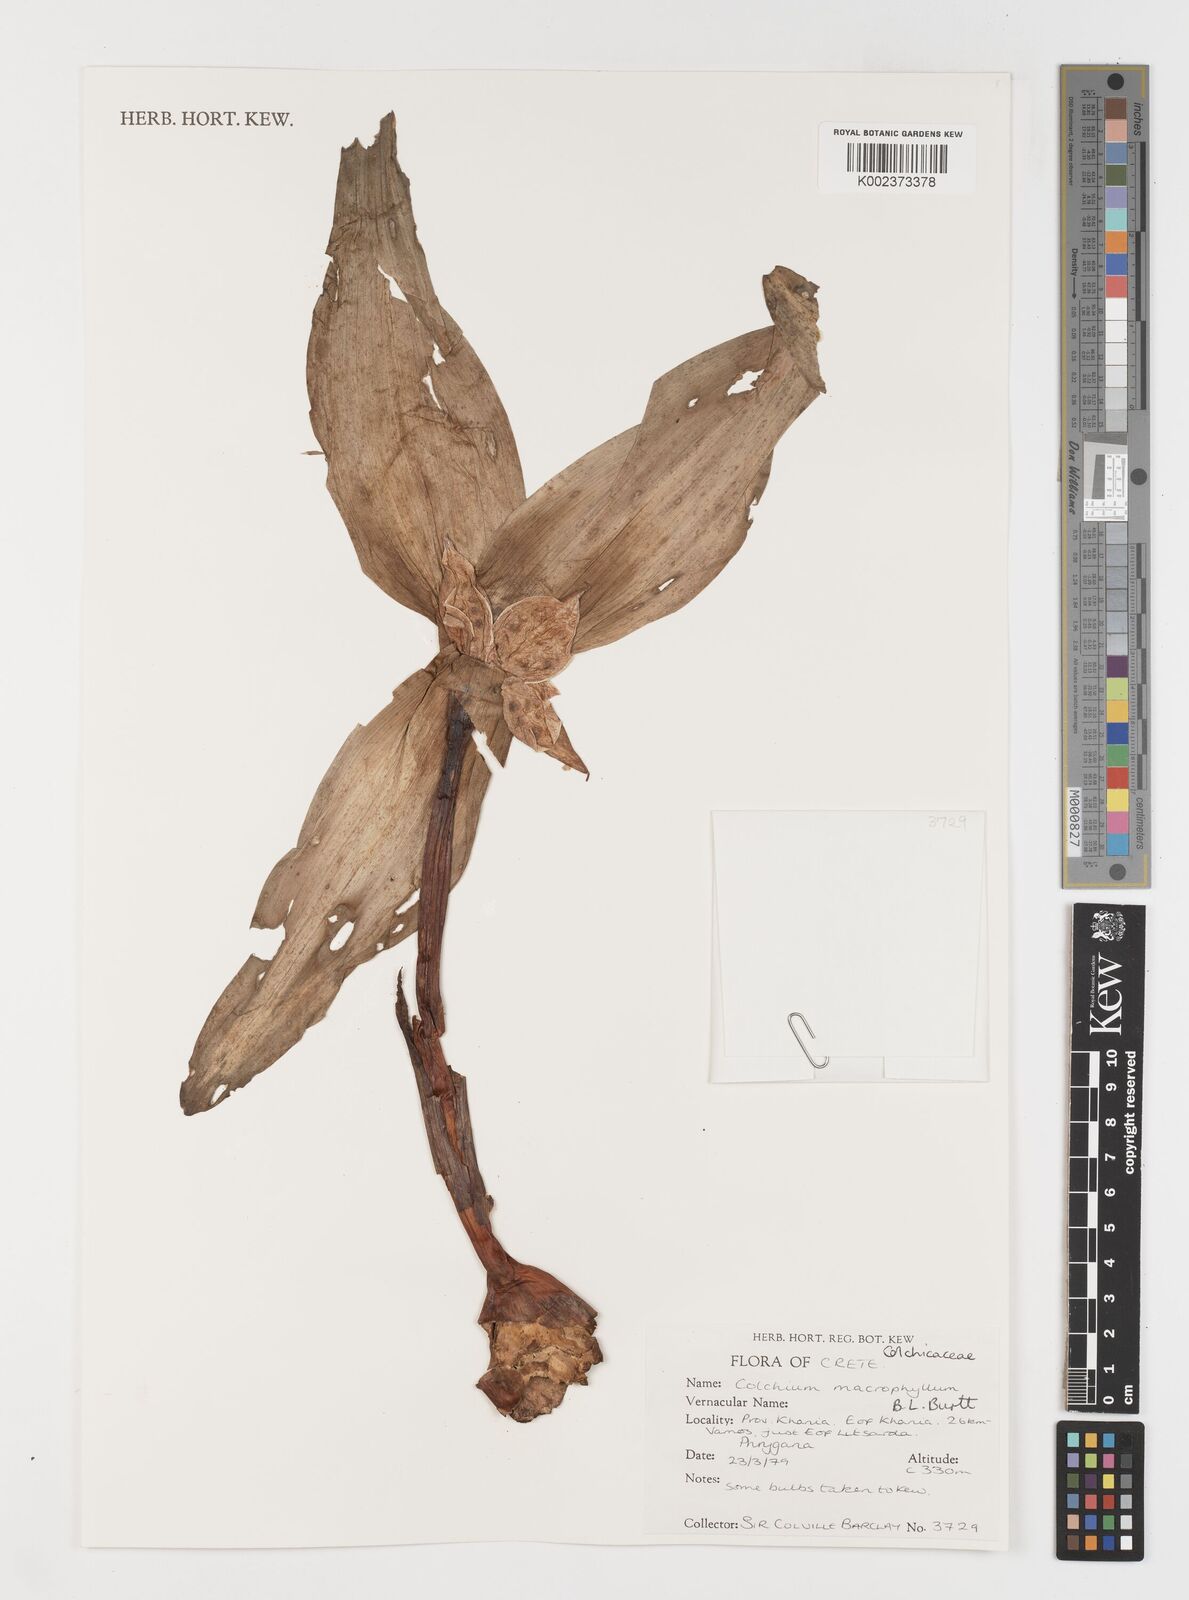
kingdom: Plantae
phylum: Tracheophyta
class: Liliopsida
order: Liliales
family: Colchicaceae
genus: Colchicum
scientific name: Colchicum macrophyllum
